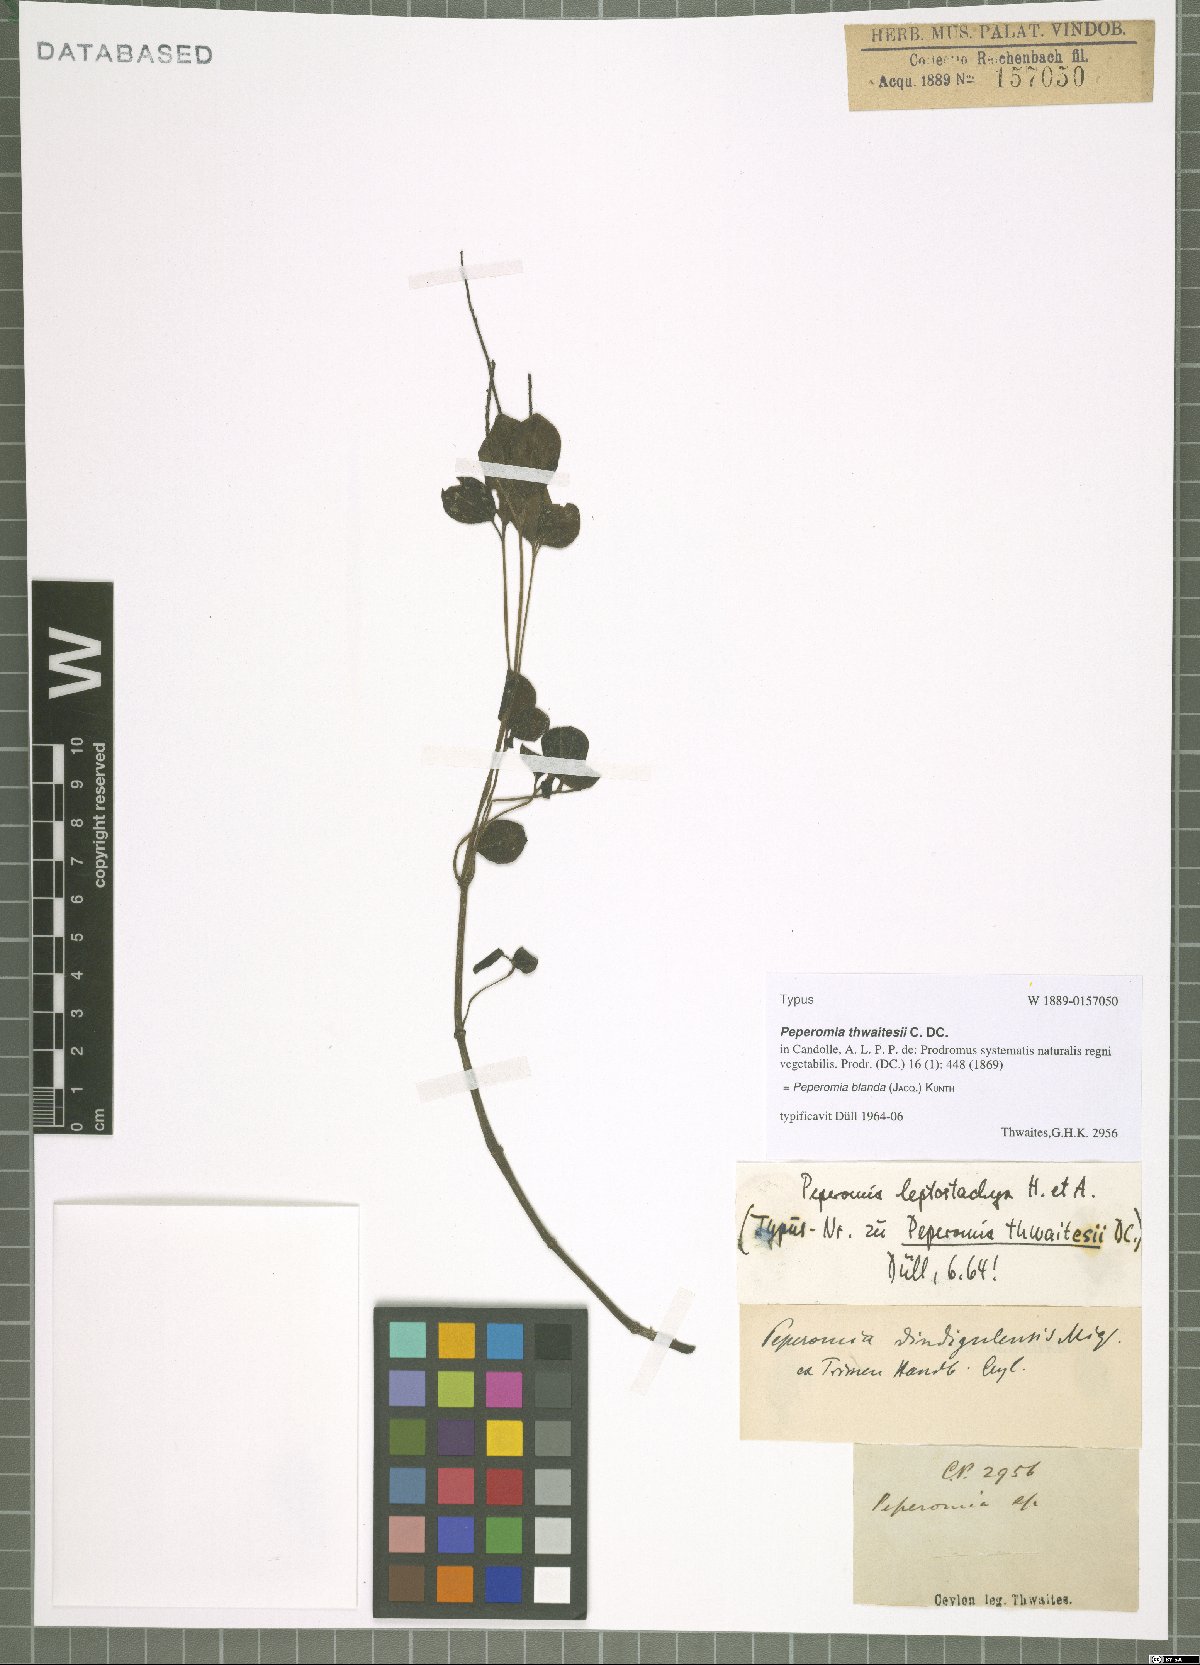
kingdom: Plantae
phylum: Tracheophyta
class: Magnoliopsida
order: Piperales
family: Piperaceae
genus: Peperomia
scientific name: Peperomia blanda
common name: Arid-land peperomia
